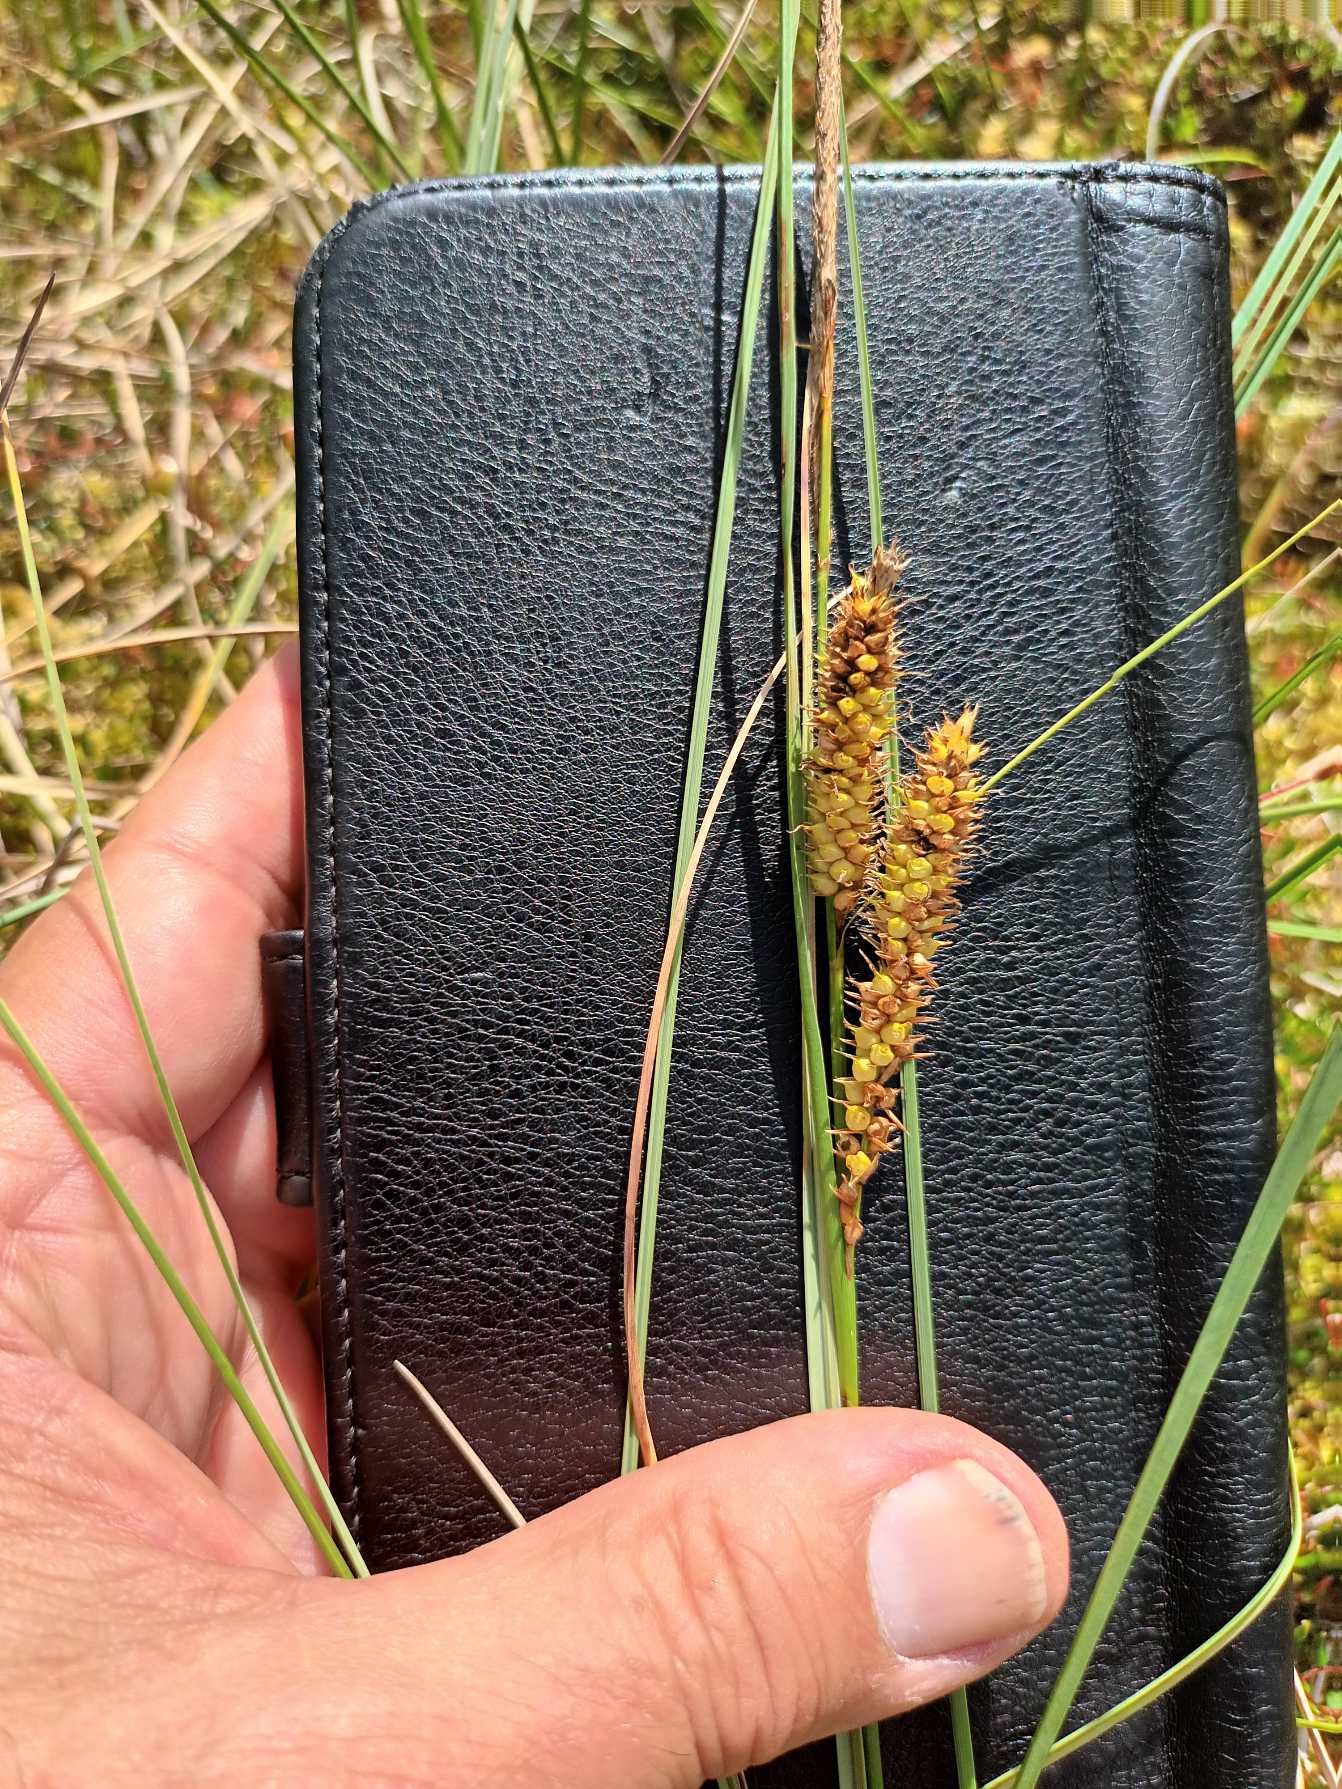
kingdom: Plantae
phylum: Tracheophyta
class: Liliopsida
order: Poales
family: Cyperaceae
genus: Carex
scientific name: Carex rostrata
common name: Næb-star
